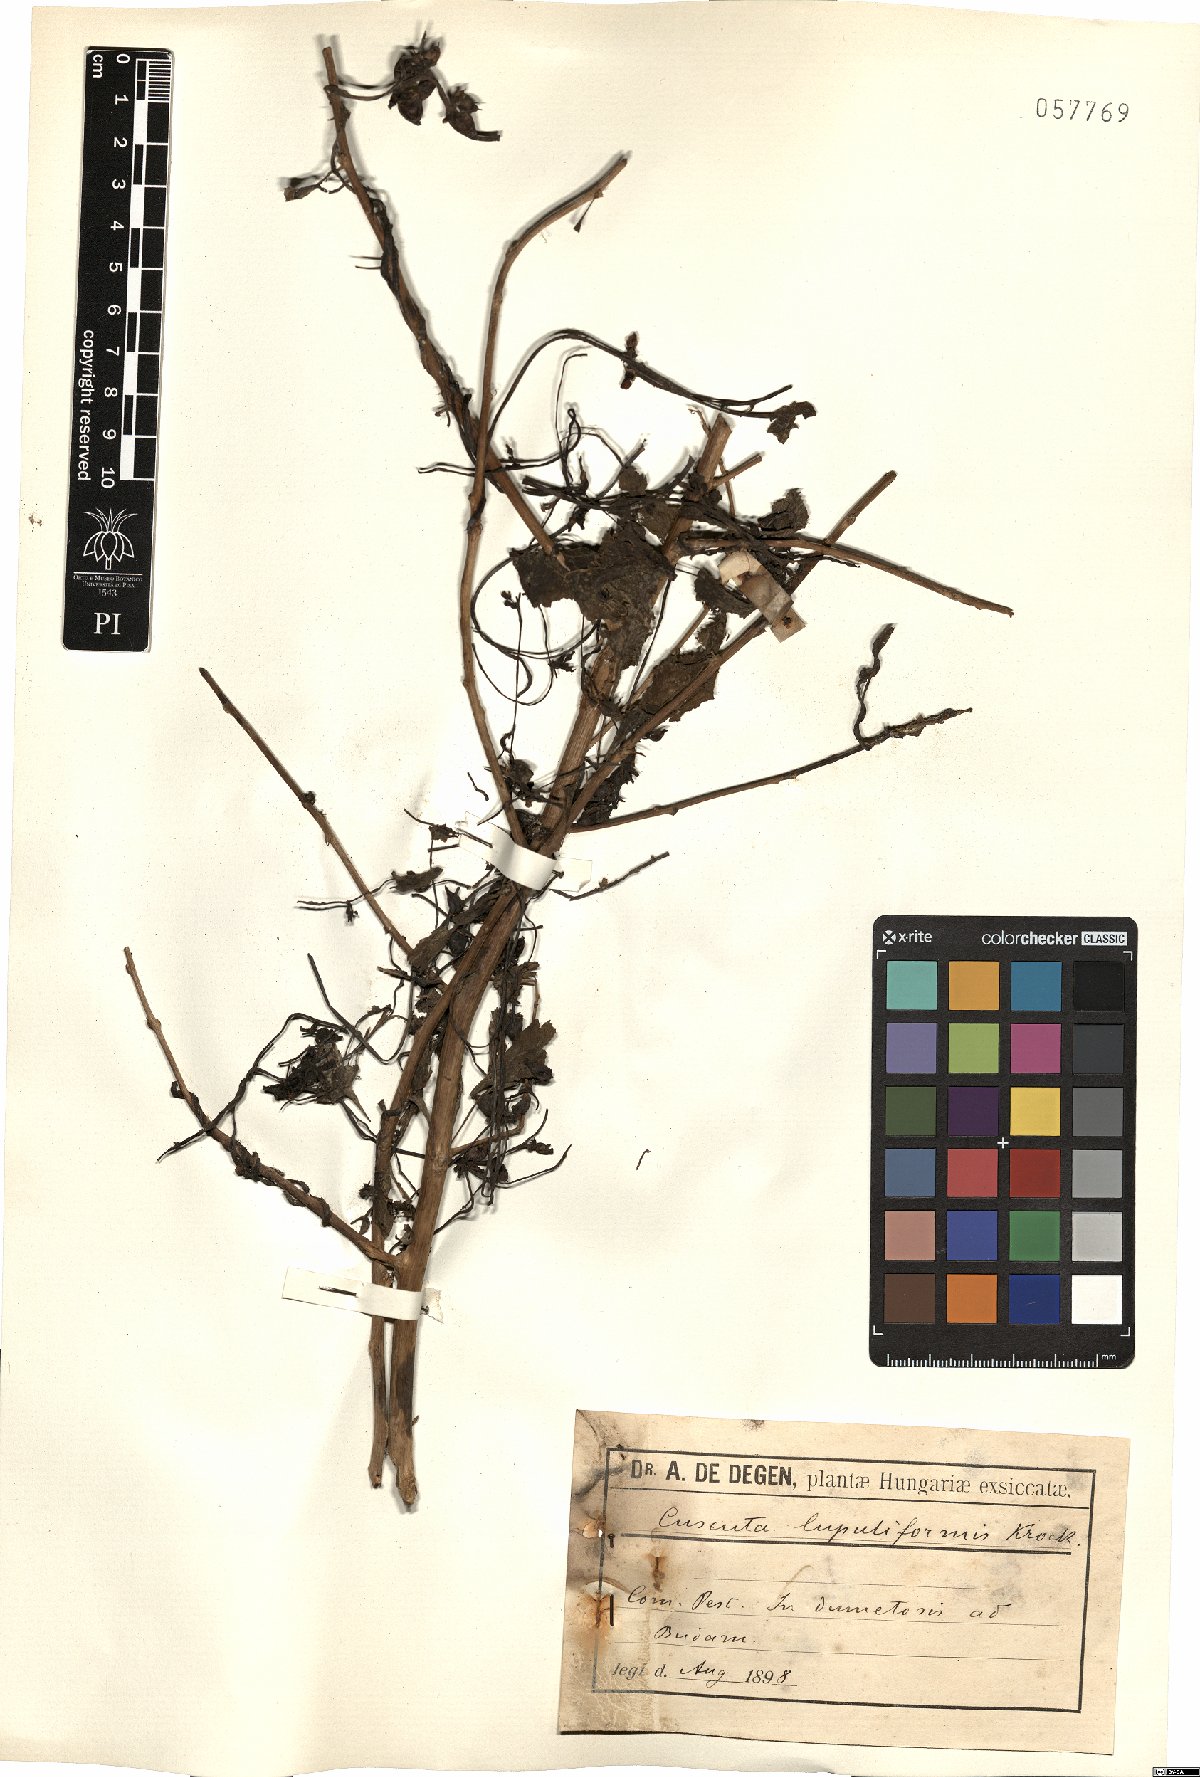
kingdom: Plantae
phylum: Tracheophyta
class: Magnoliopsida
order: Solanales
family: Convolvulaceae
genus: Cuscuta
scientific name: Cuscuta lupuliformis
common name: Hop dodder
